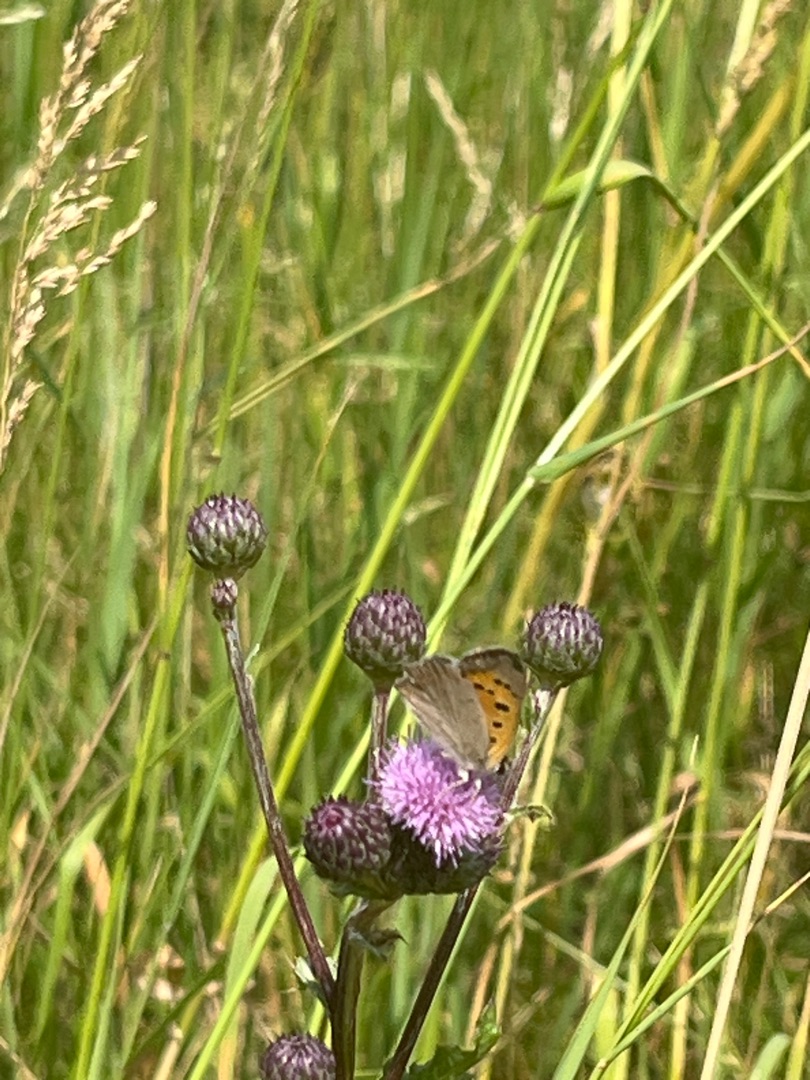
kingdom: Animalia
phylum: Arthropoda
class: Insecta
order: Lepidoptera
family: Lycaenidae
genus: Lycaena
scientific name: Lycaena phlaeas
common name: Lille ildfugl
